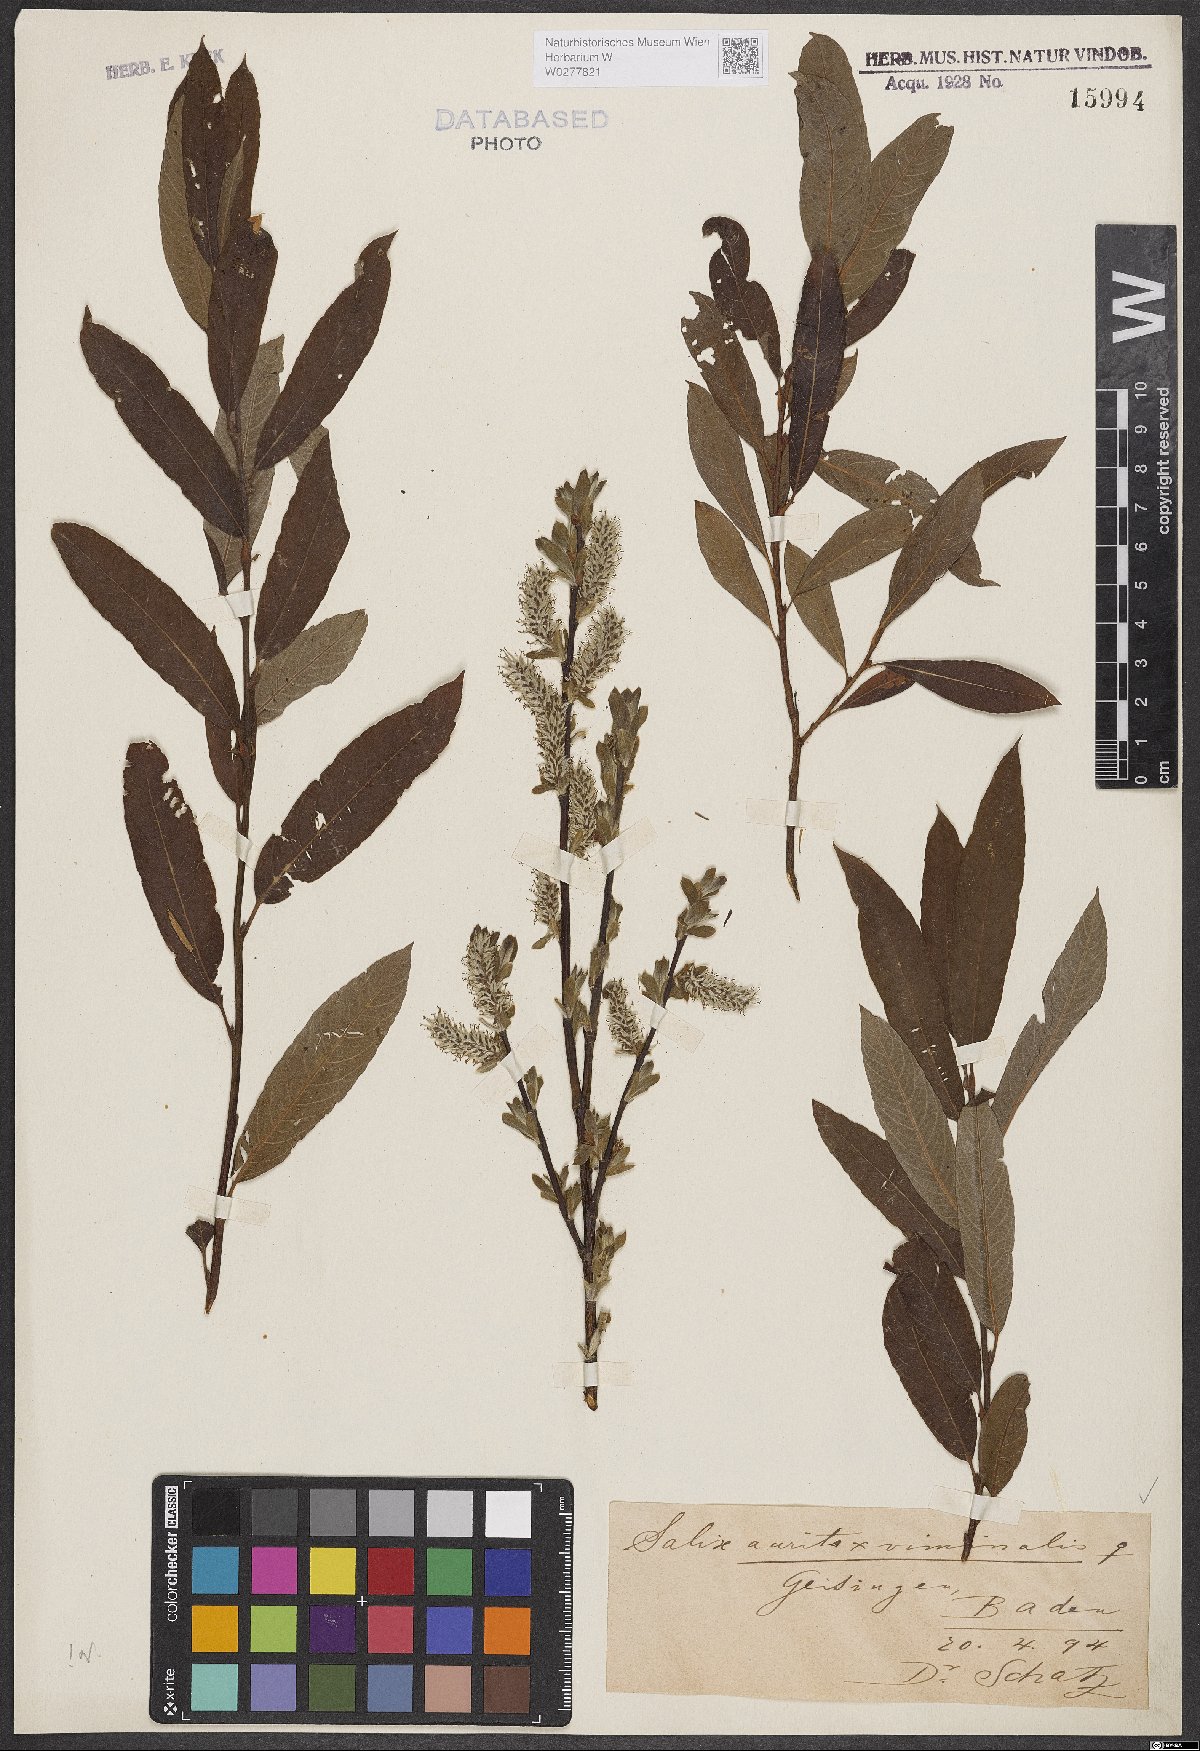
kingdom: Plantae
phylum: Tracheophyta
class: Magnoliopsida
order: Malpighiales
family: Salicaceae
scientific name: Salicaceae
